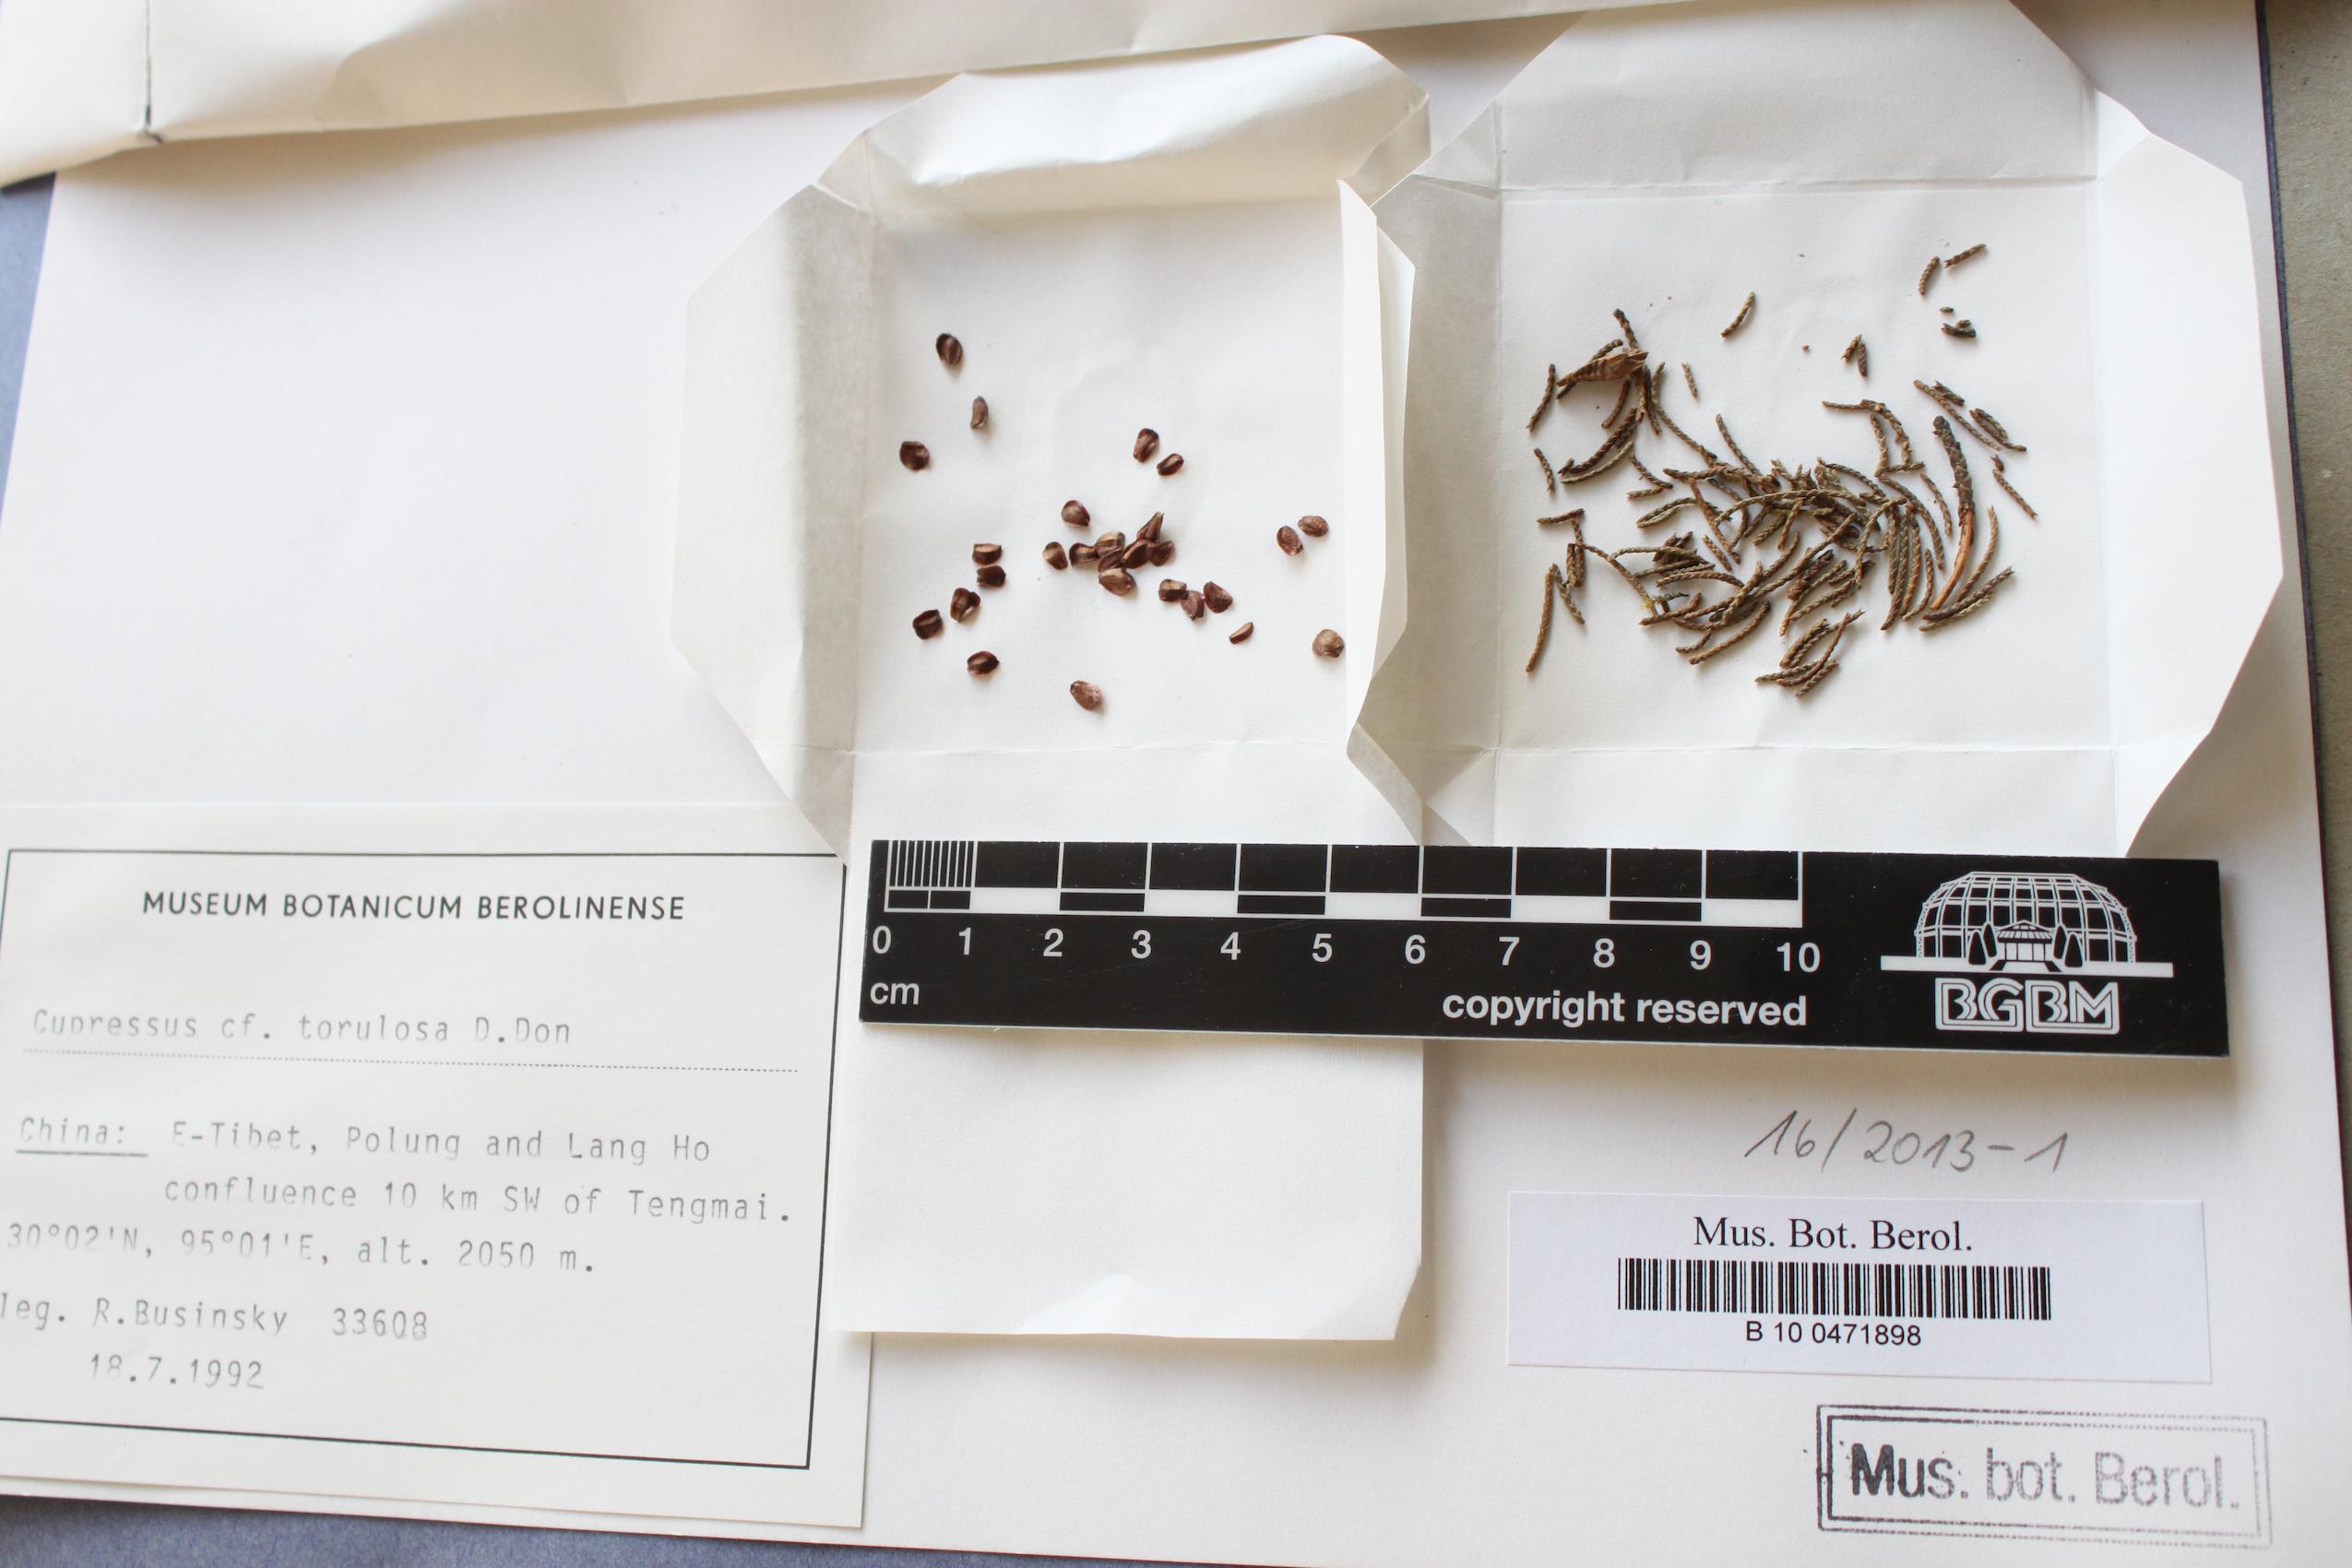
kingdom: Plantae
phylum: Tracheophyta
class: Pinopsida
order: Pinales
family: Cupressaceae
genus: Cupressus
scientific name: Cupressus torulosa
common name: Himalayan cypress
